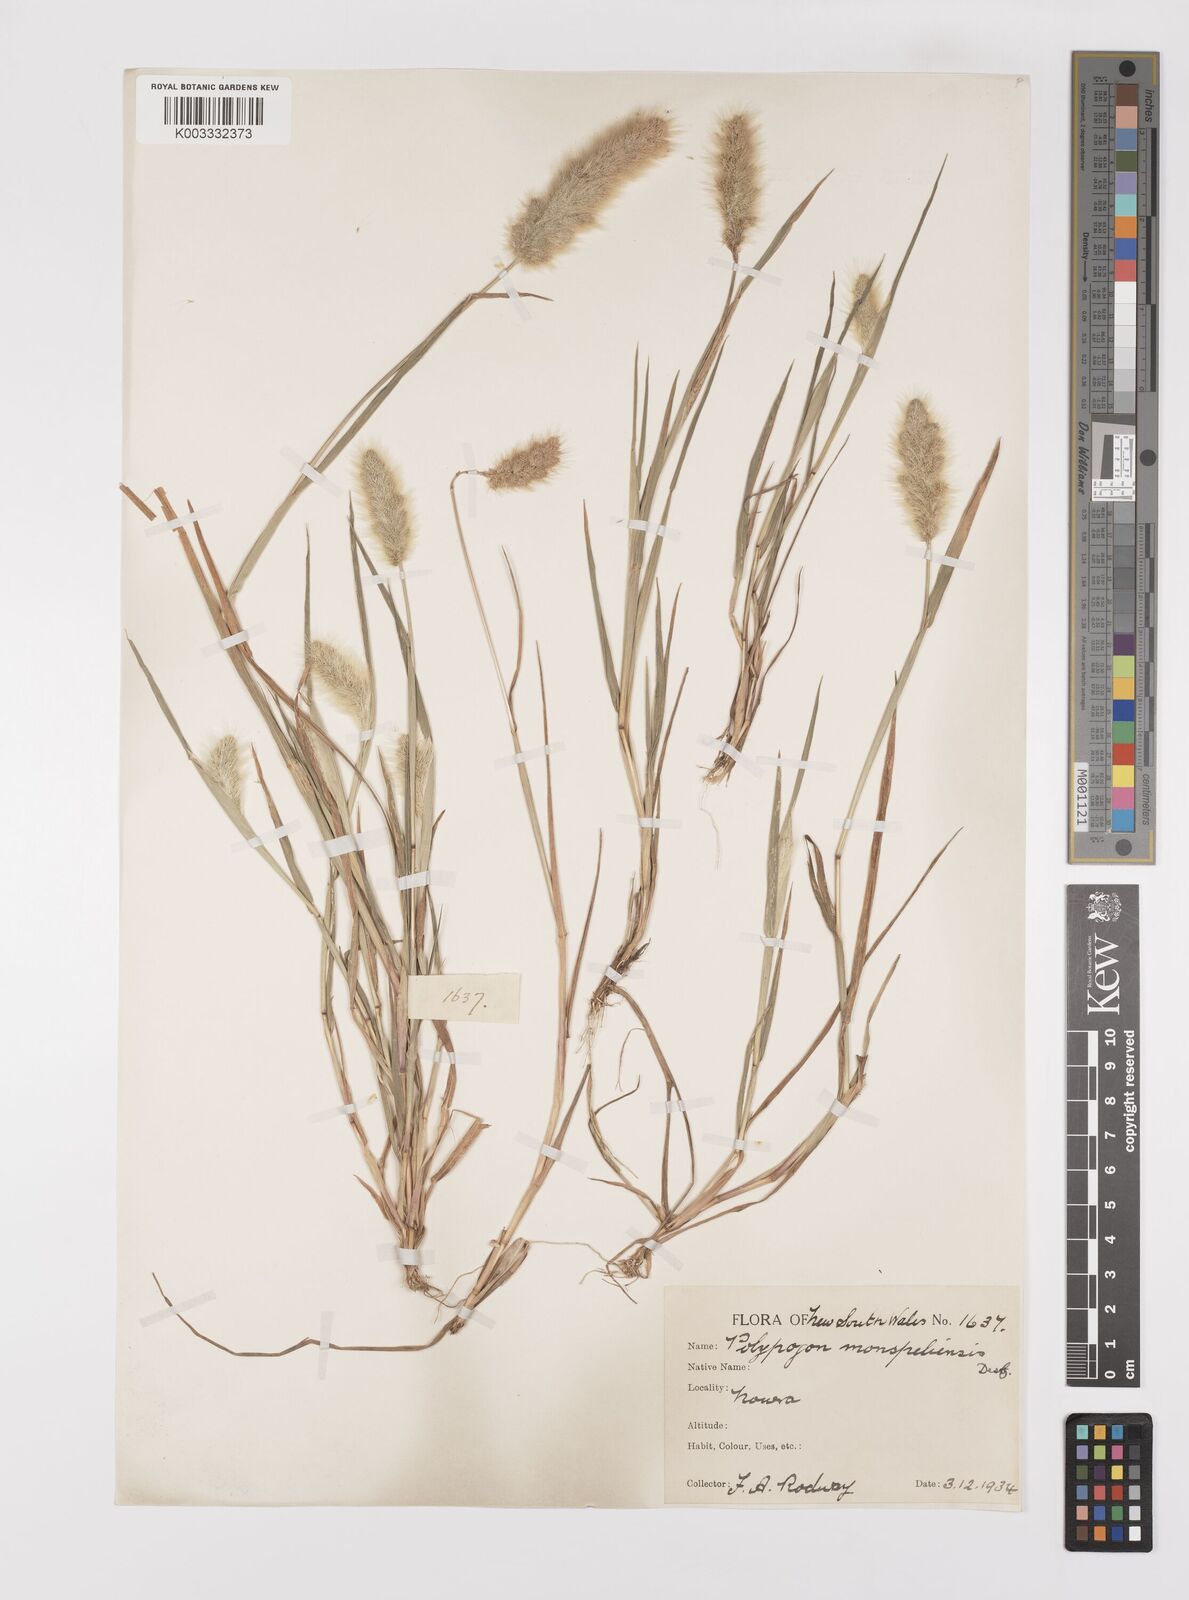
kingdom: Plantae
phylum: Tracheophyta
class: Liliopsida
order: Poales
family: Poaceae
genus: Polypogon
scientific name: Polypogon monspeliensis
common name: Annual rabbitsfoot grass
